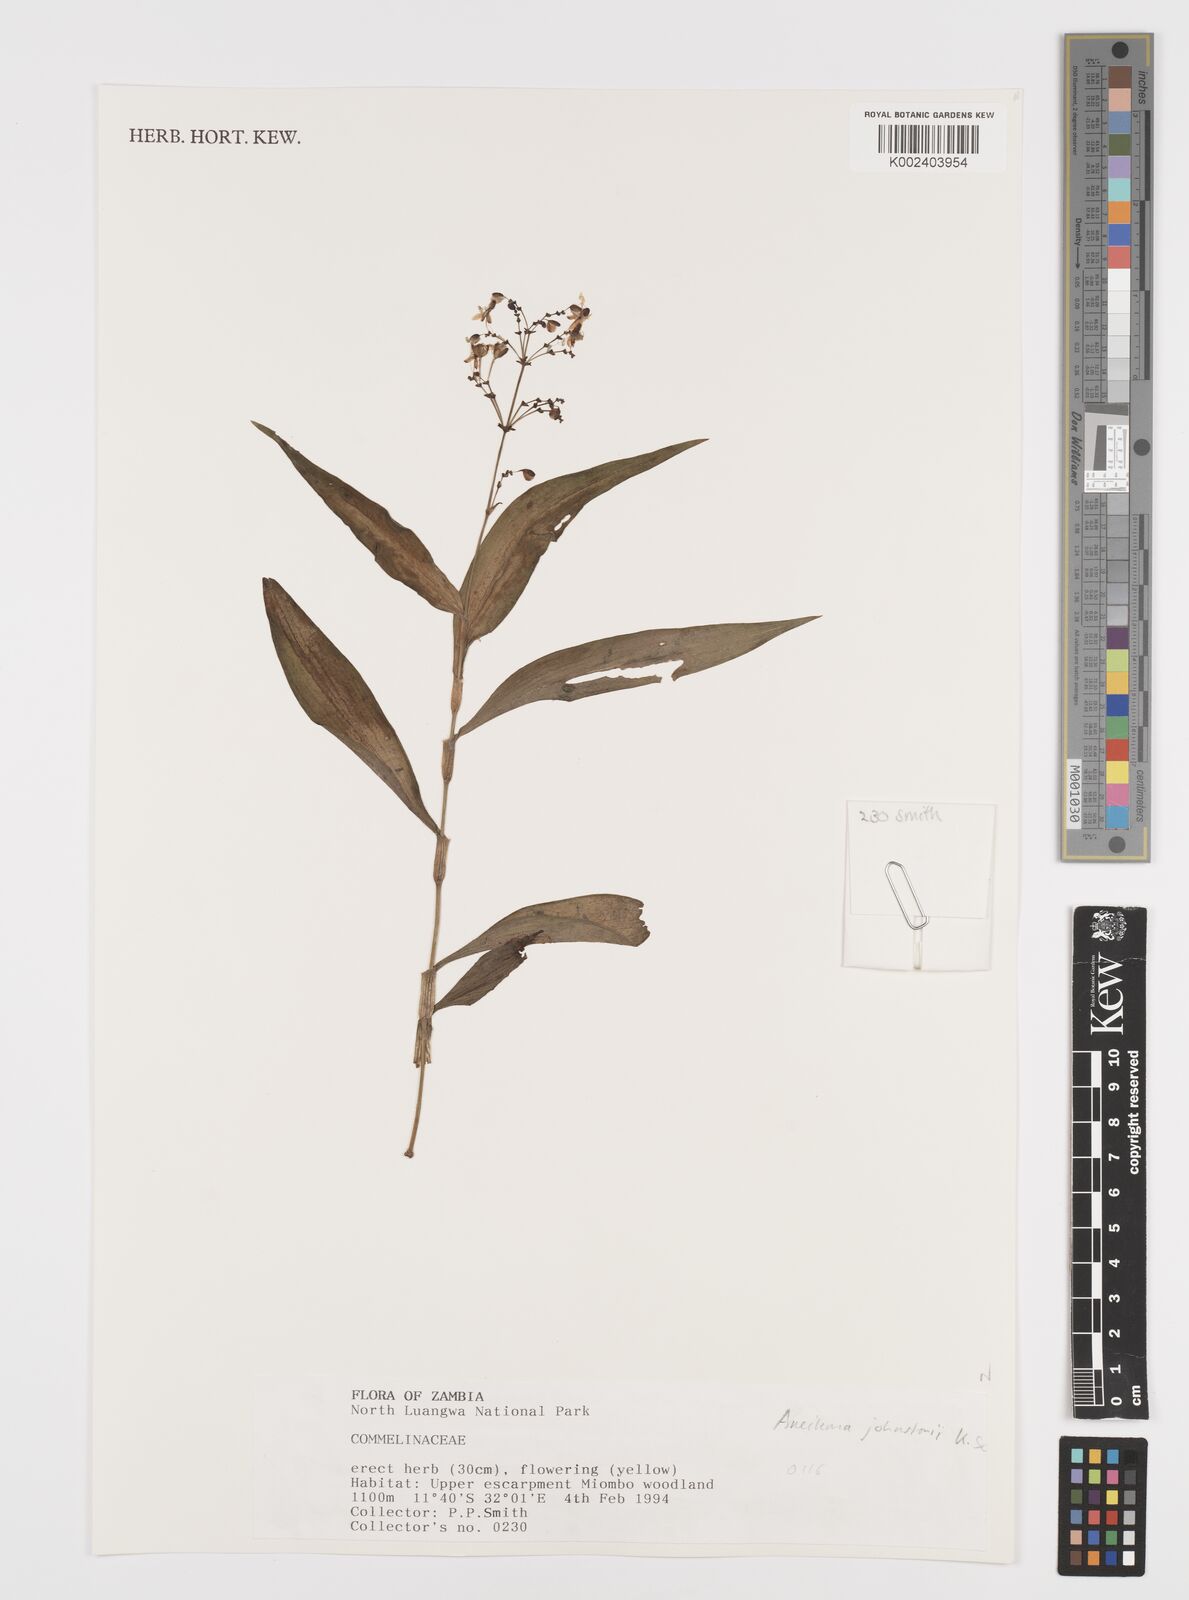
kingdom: Plantae
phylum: Tracheophyta
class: Liliopsida
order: Commelinales
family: Commelinaceae
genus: Aneilema
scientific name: Aneilema johnstonii
